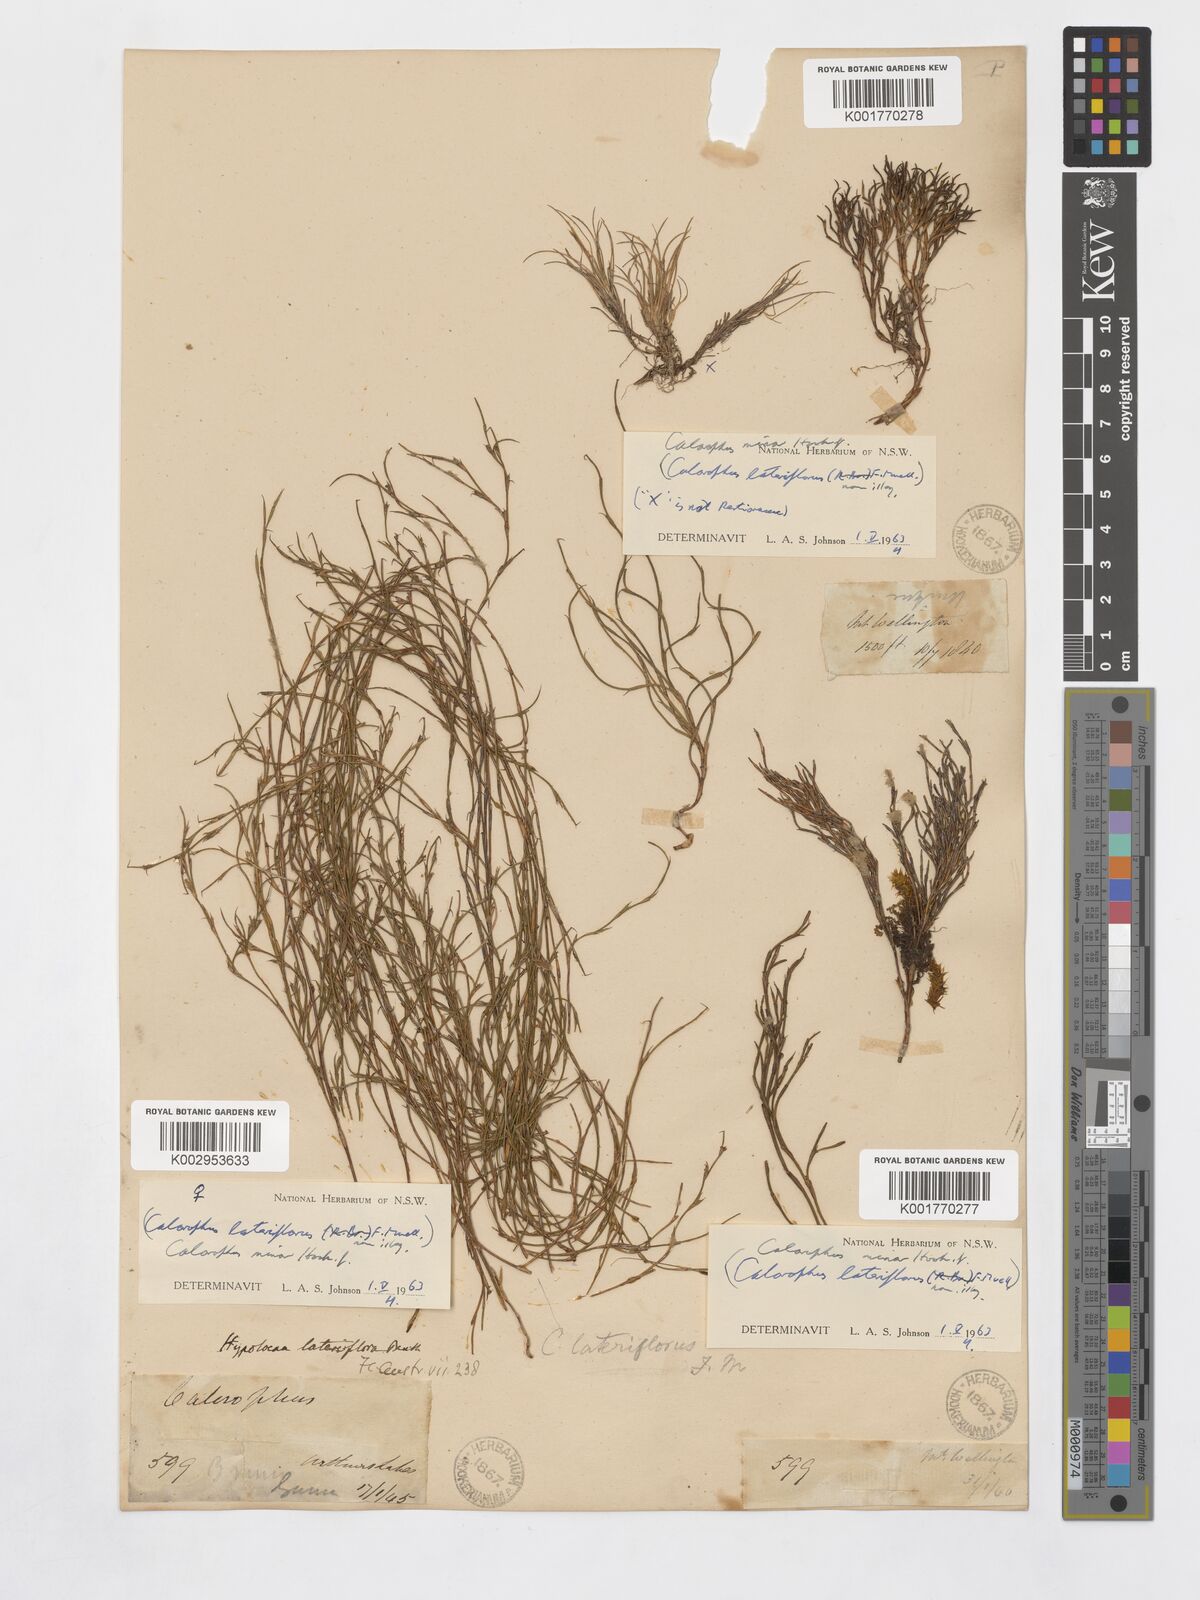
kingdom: Plantae
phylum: Tracheophyta
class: Liliopsida
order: Poales
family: Restionaceae
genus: Empodisma
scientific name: Empodisma minus
